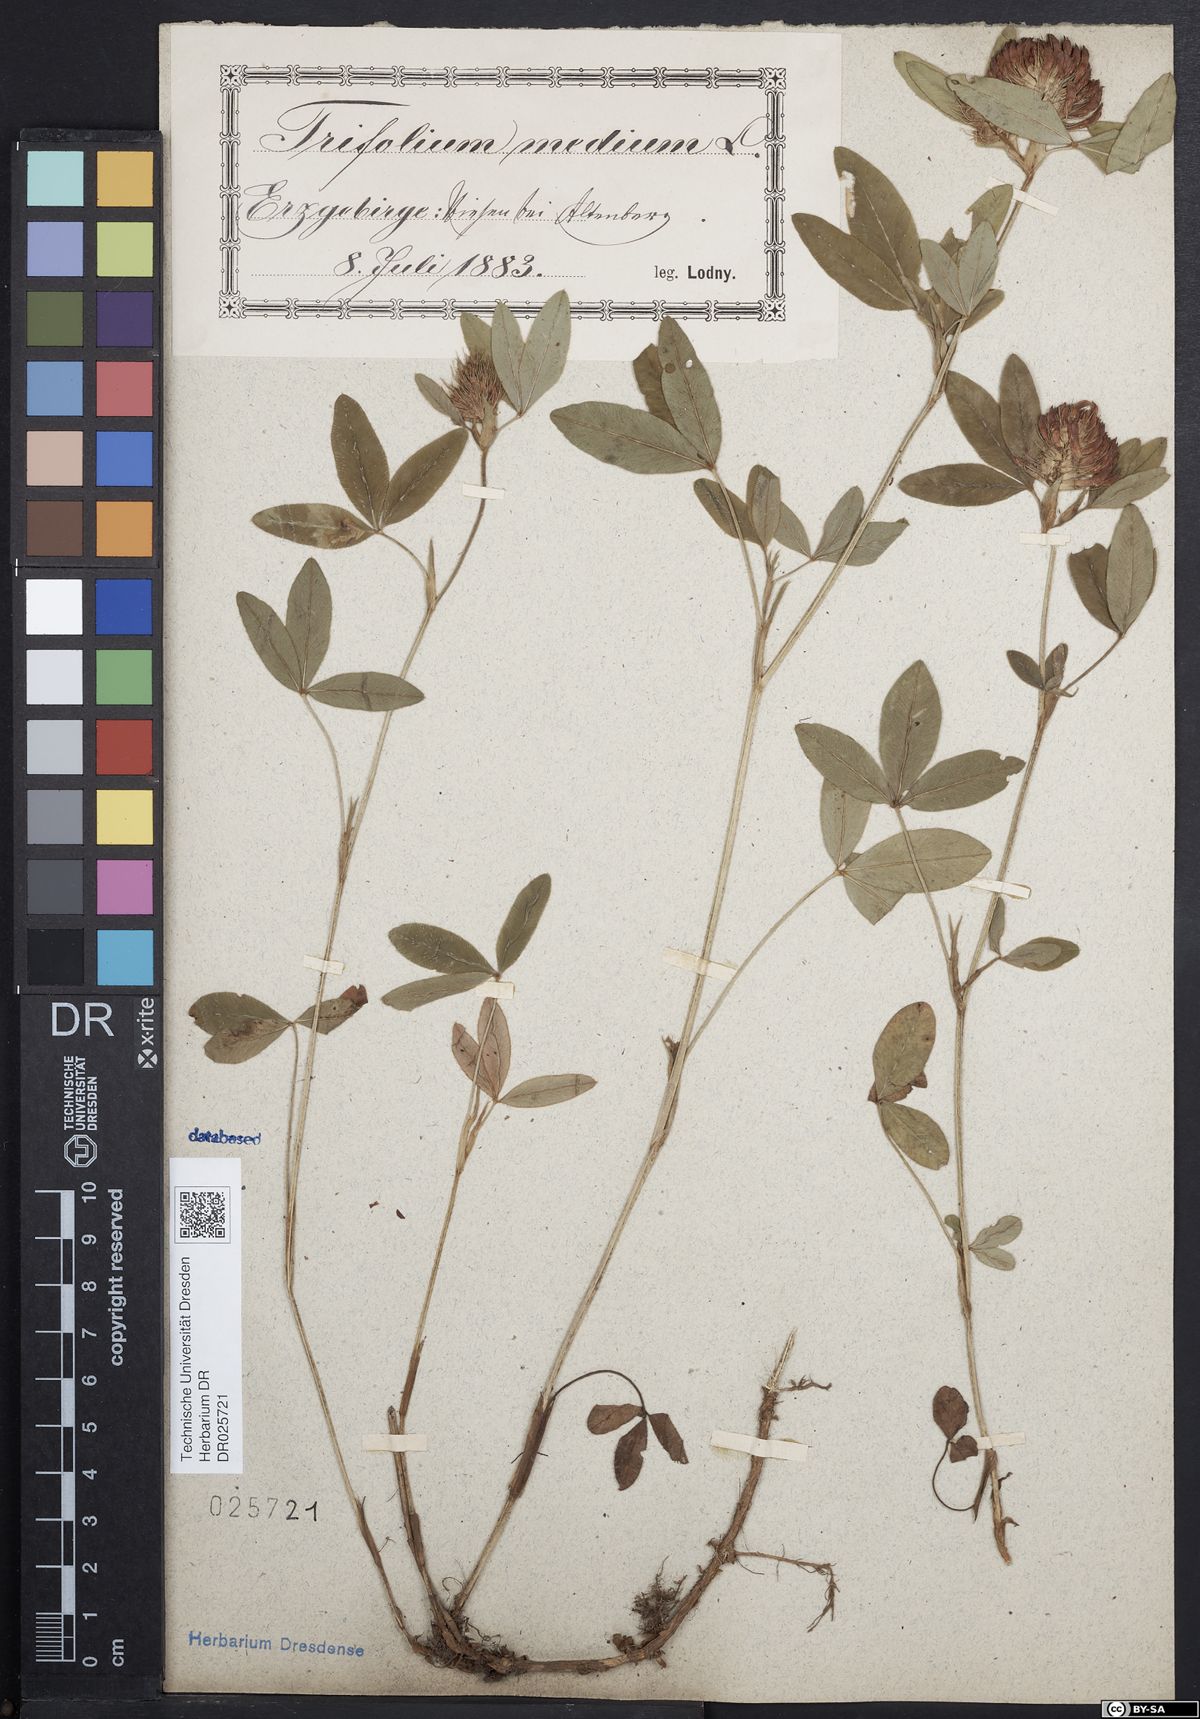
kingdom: Plantae
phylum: Tracheophyta
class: Magnoliopsida
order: Fabales
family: Fabaceae
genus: Trifolium
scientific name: Trifolium medium
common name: Zigzag clover
